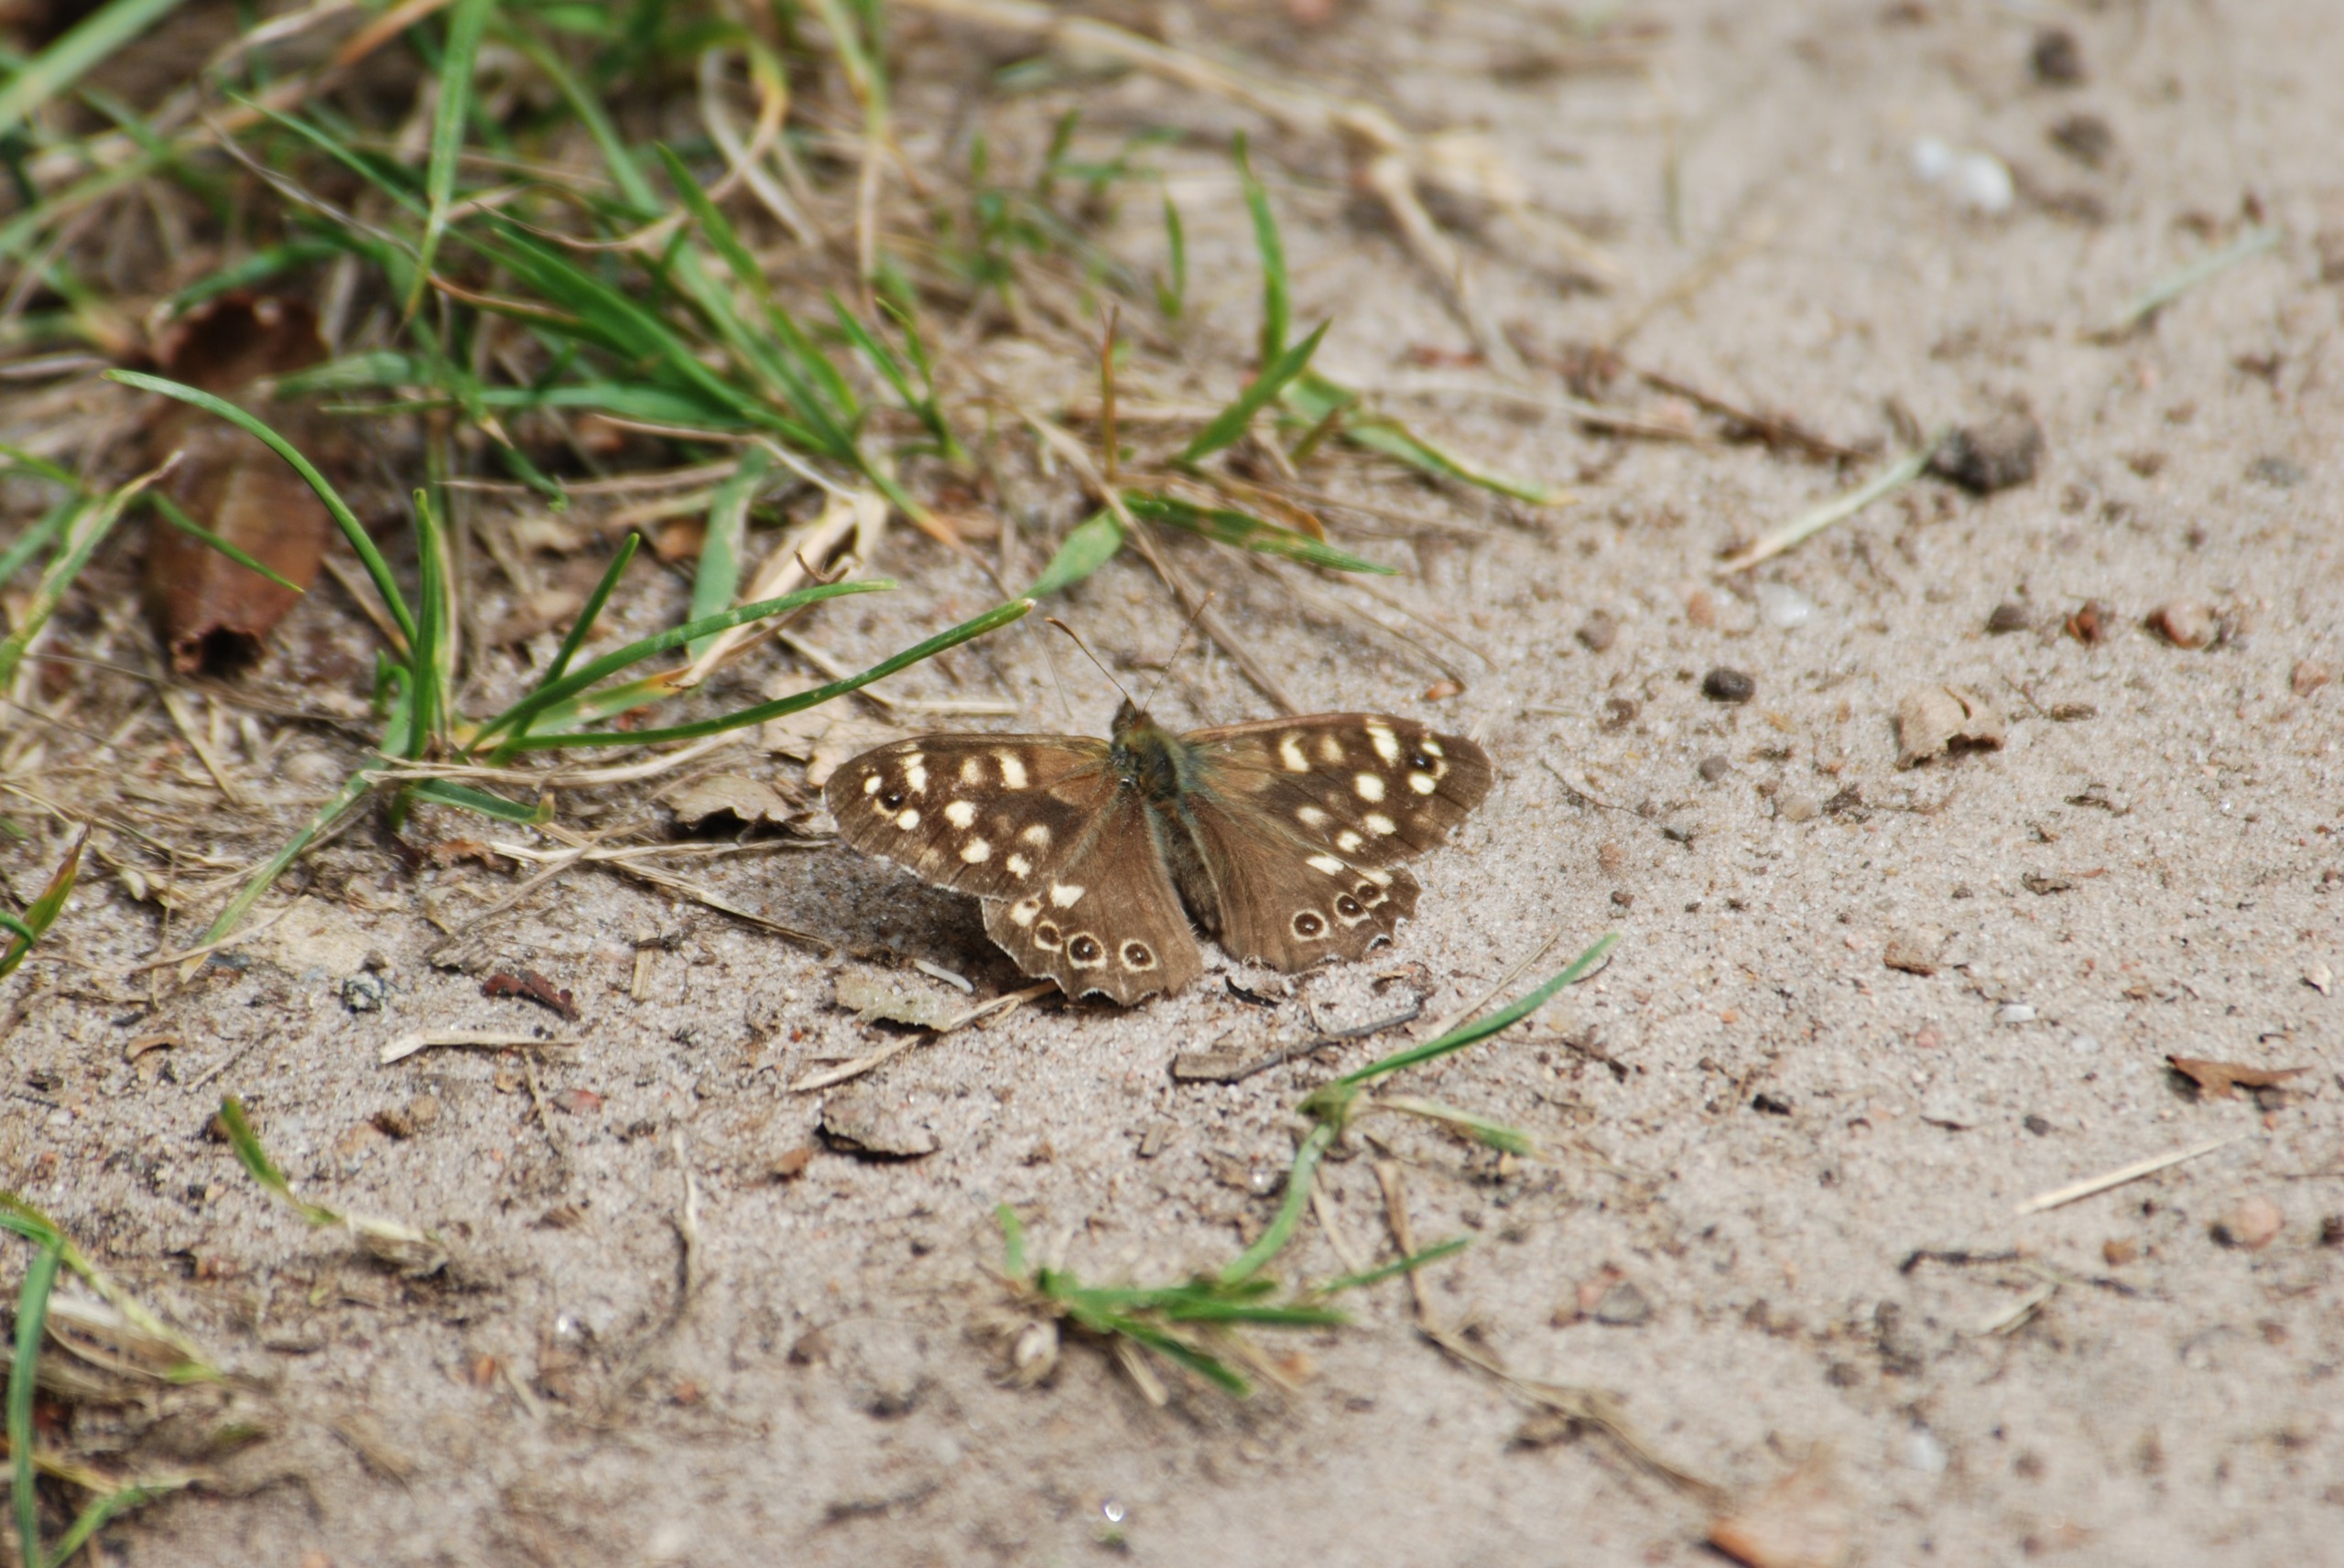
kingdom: Animalia
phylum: Arthropoda
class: Insecta
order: Lepidoptera
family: Nymphalidae
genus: Pararge
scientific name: Pararge aegeria
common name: Skovrandøje
